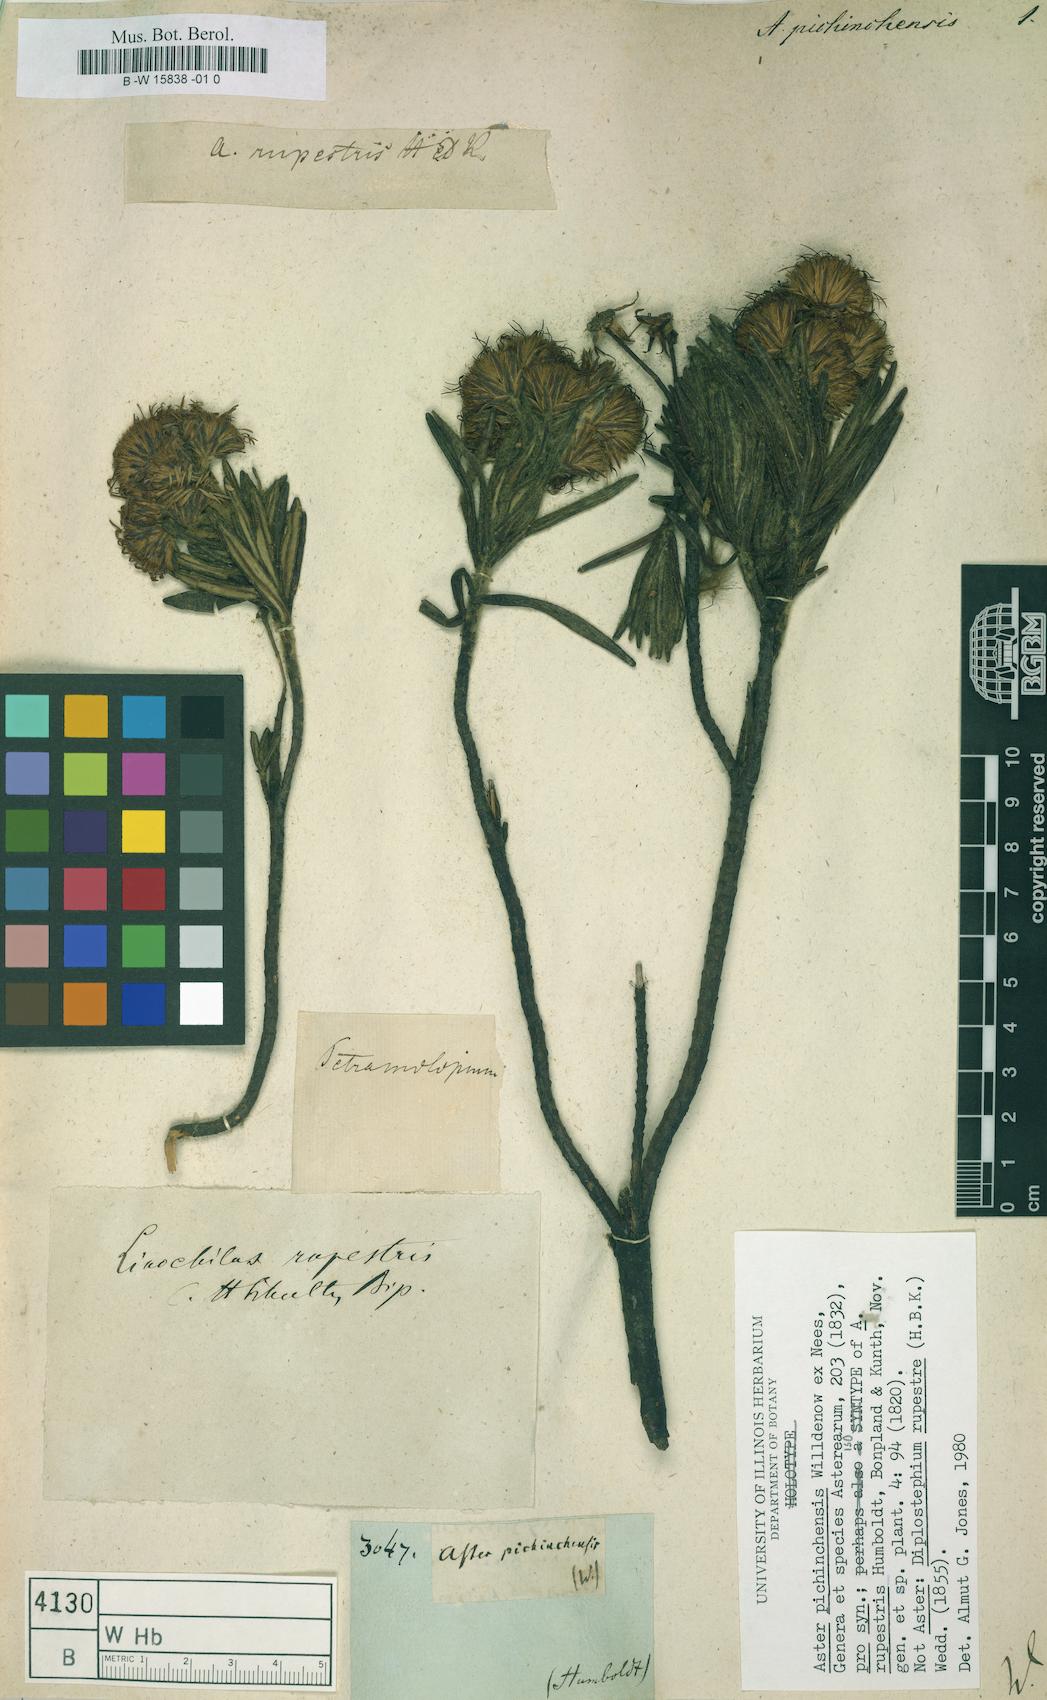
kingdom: Plantae
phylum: Tracheophyta
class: Magnoliopsida
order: Asterales
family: Asteraceae
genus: Linochilus
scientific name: Linochilus rupestris
